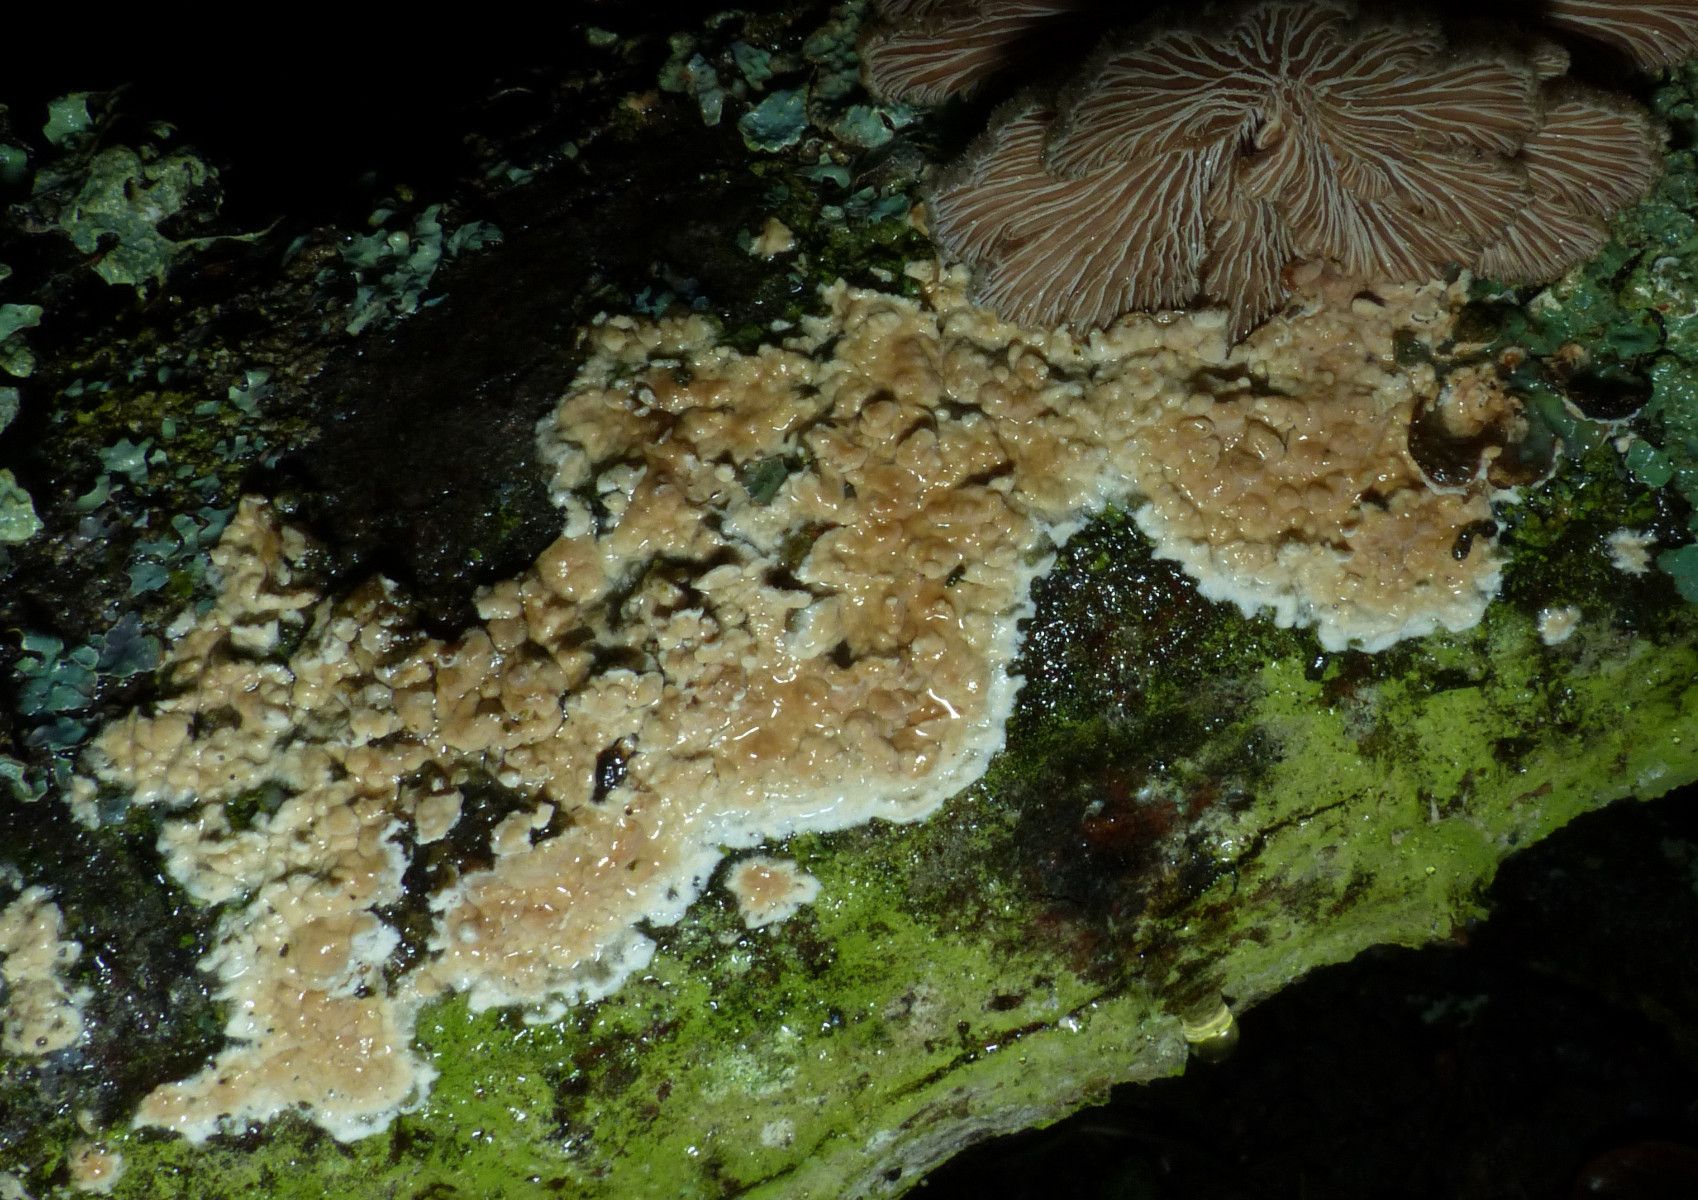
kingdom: Fungi
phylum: Basidiomycota
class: Agaricomycetes
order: Agaricales
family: Physalacriaceae
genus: Cylindrobasidium
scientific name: Cylindrobasidium evolvens
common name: sprækkehinde
